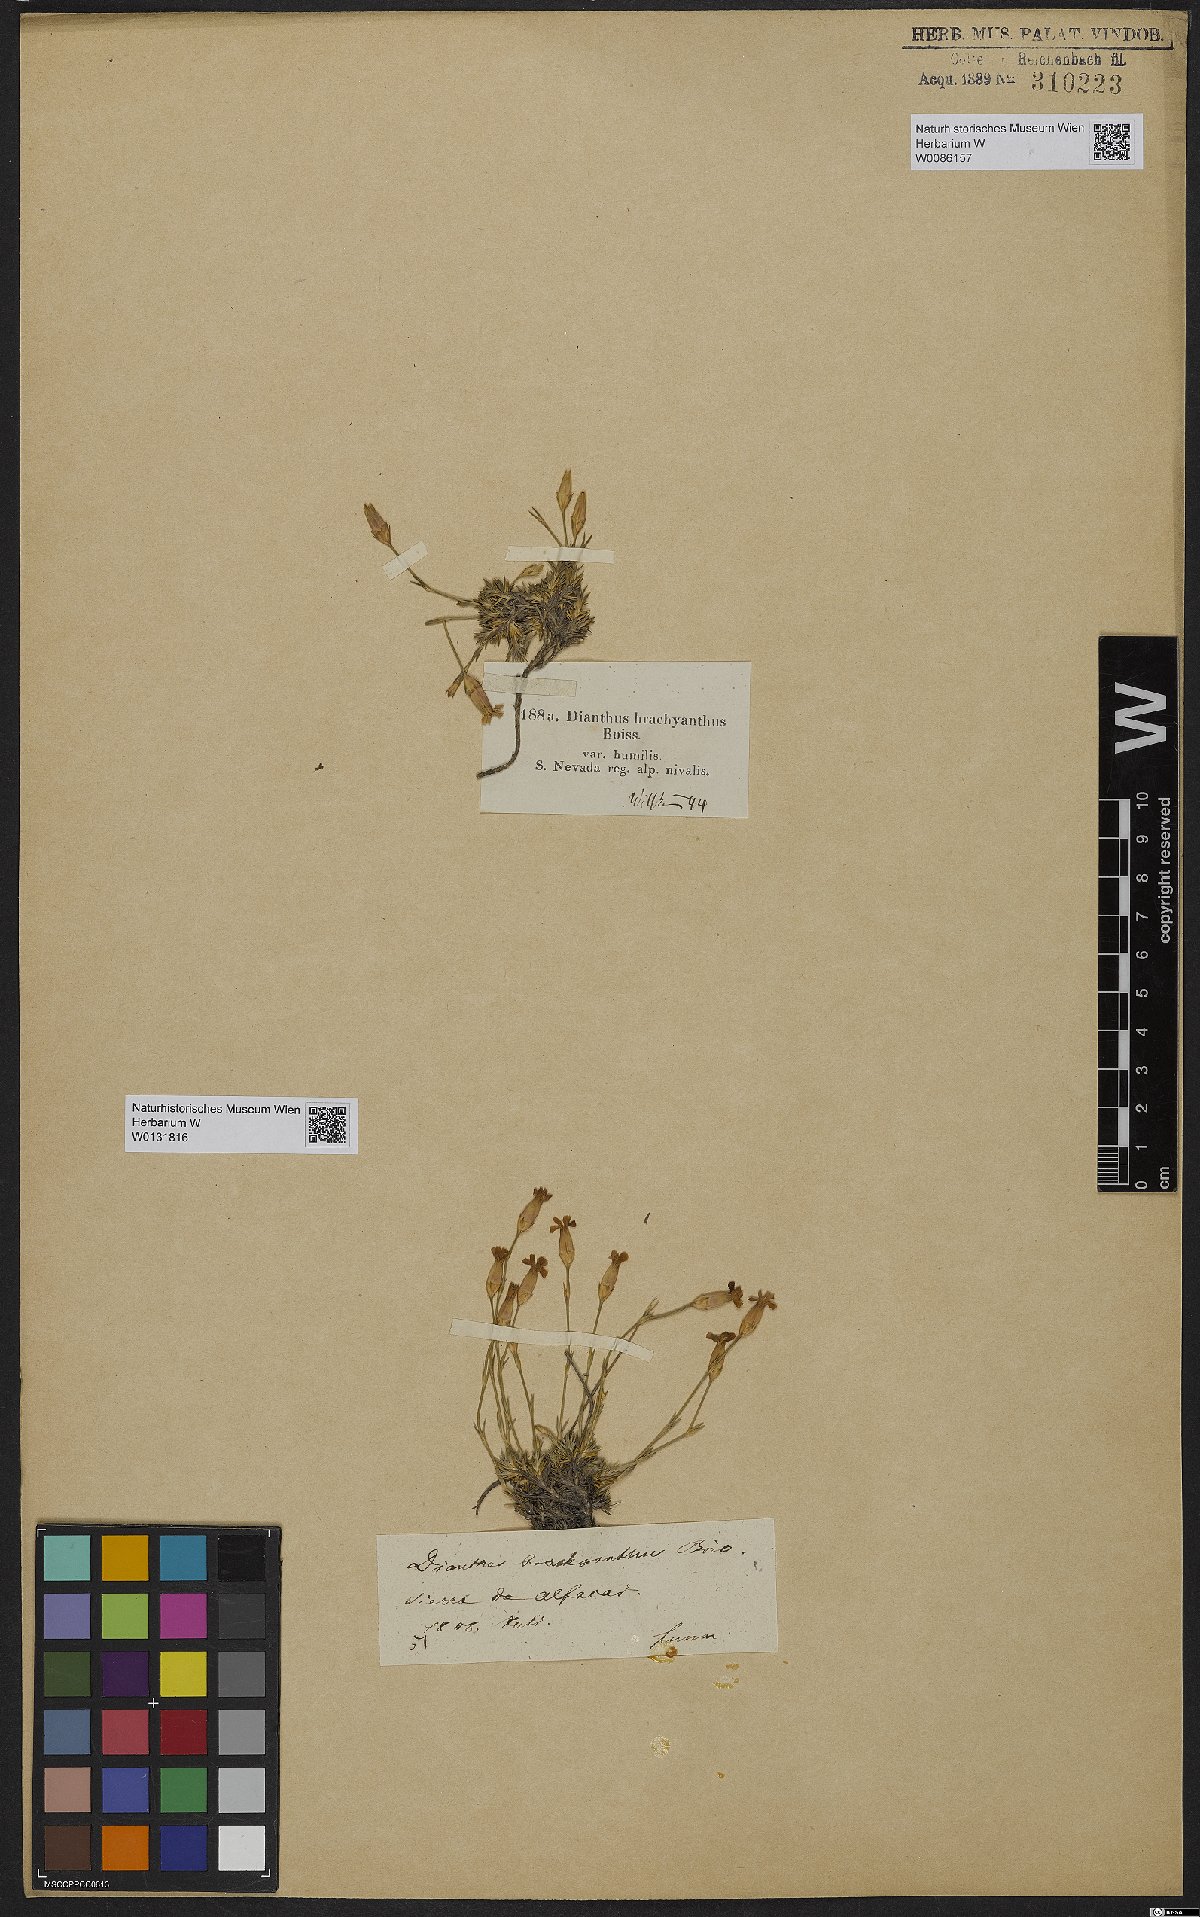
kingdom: Plantae
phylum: Tracheophyta
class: Magnoliopsida
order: Caryophyllales
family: Caryophyllaceae
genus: Dianthus
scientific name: Dianthus pungens
